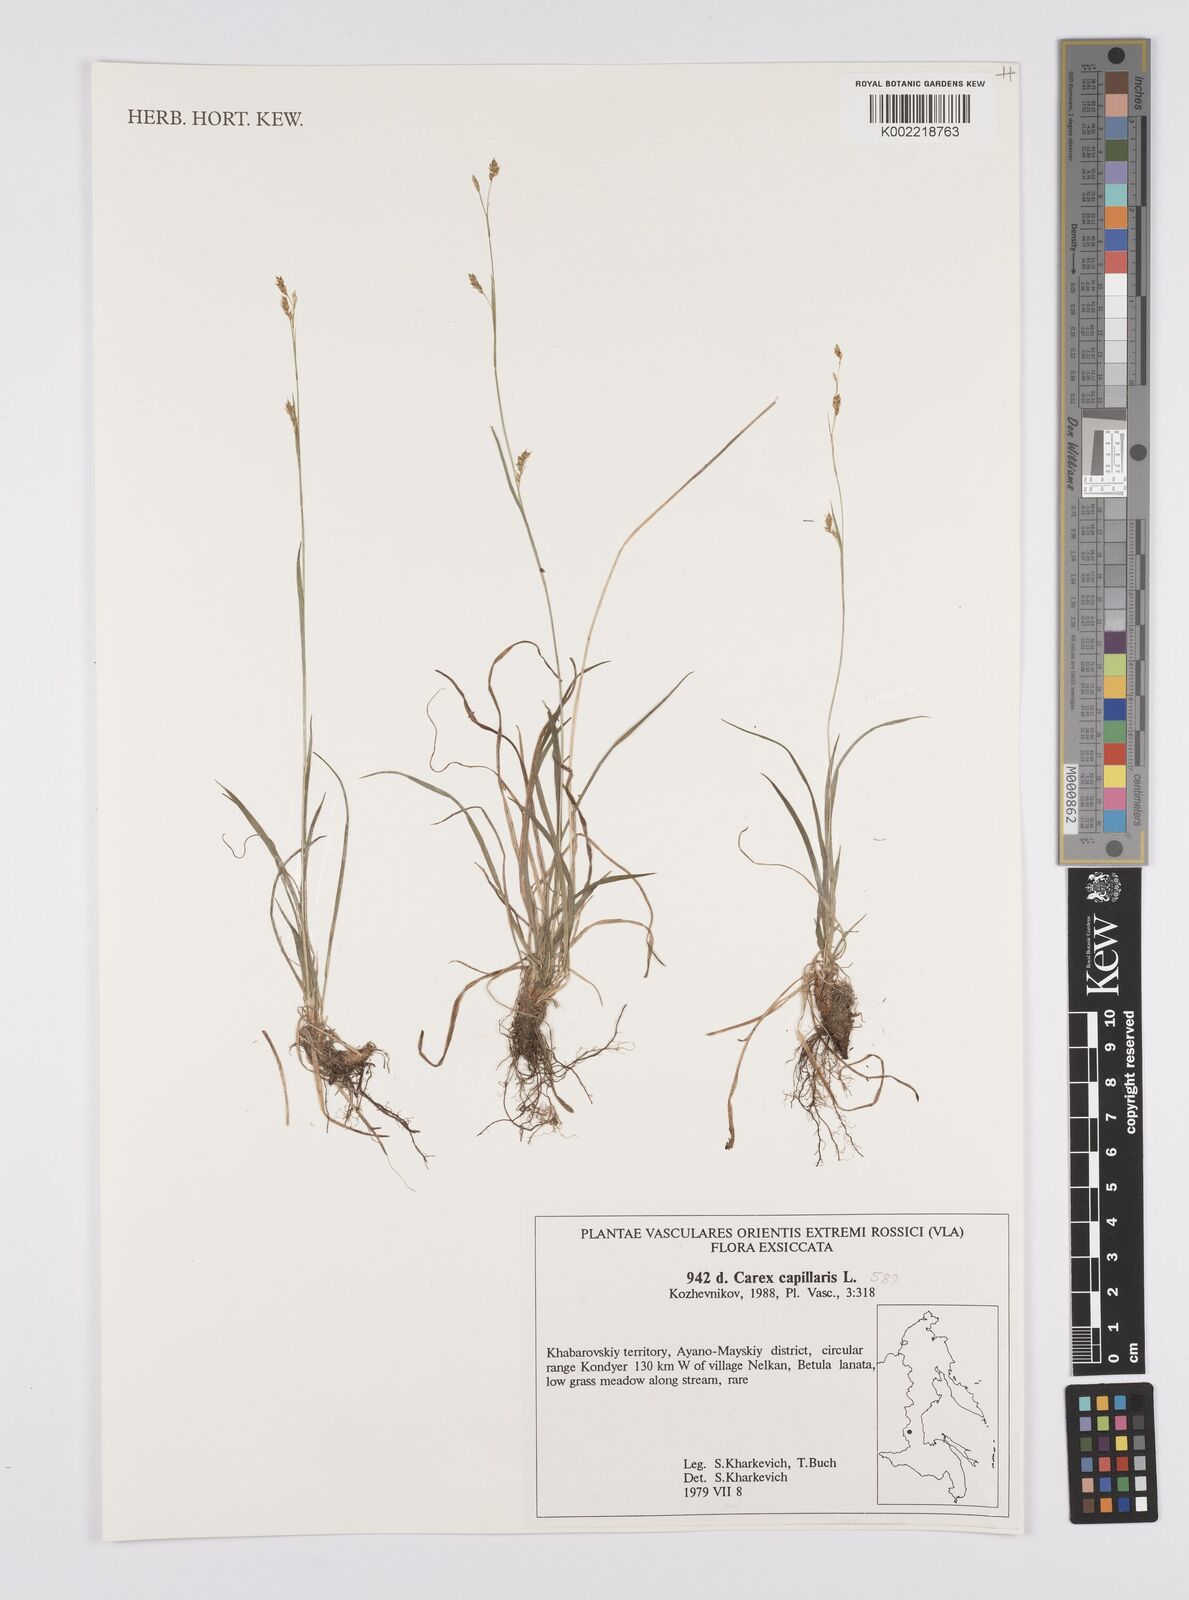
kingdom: Plantae
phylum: Tracheophyta
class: Liliopsida
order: Poales
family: Cyperaceae
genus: Carex
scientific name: Carex capillaris
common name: Hair sedge
